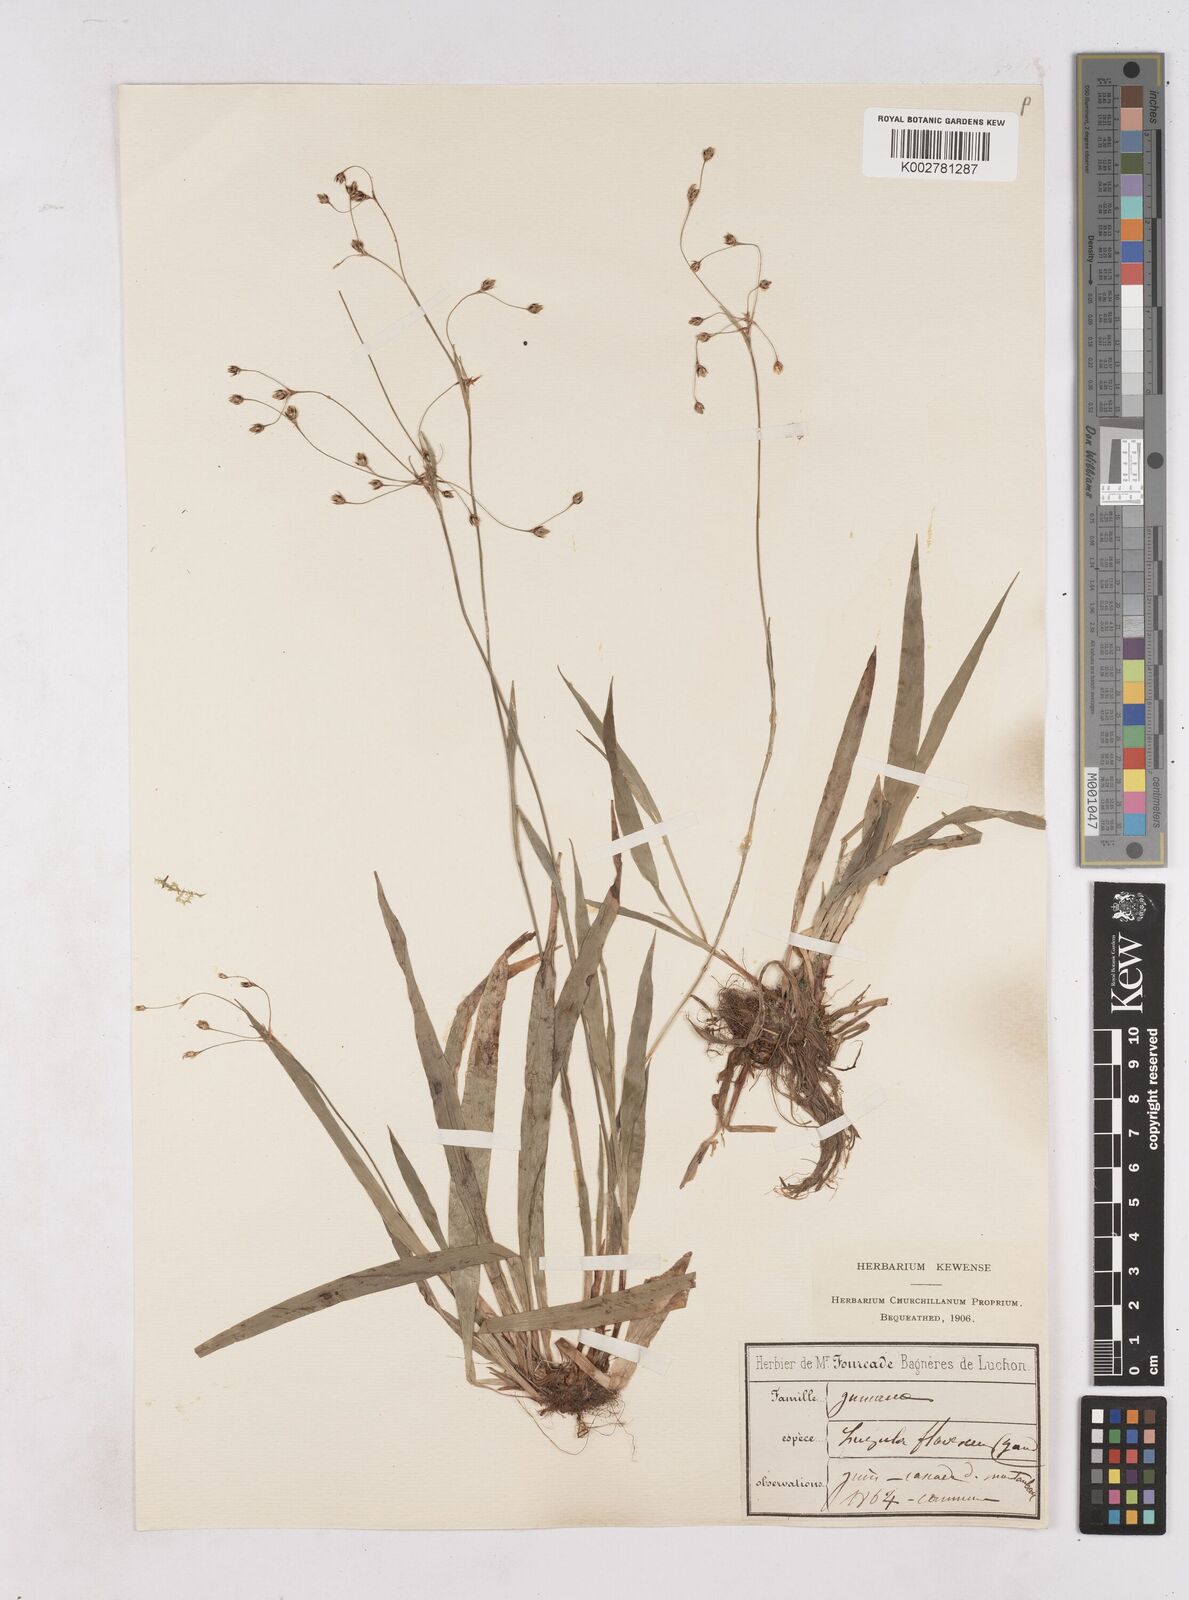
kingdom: Plantae
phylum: Tracheophyta
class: Liliopsida
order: Poales
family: Juncaceae
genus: Luzula
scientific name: Luzula luzulina
